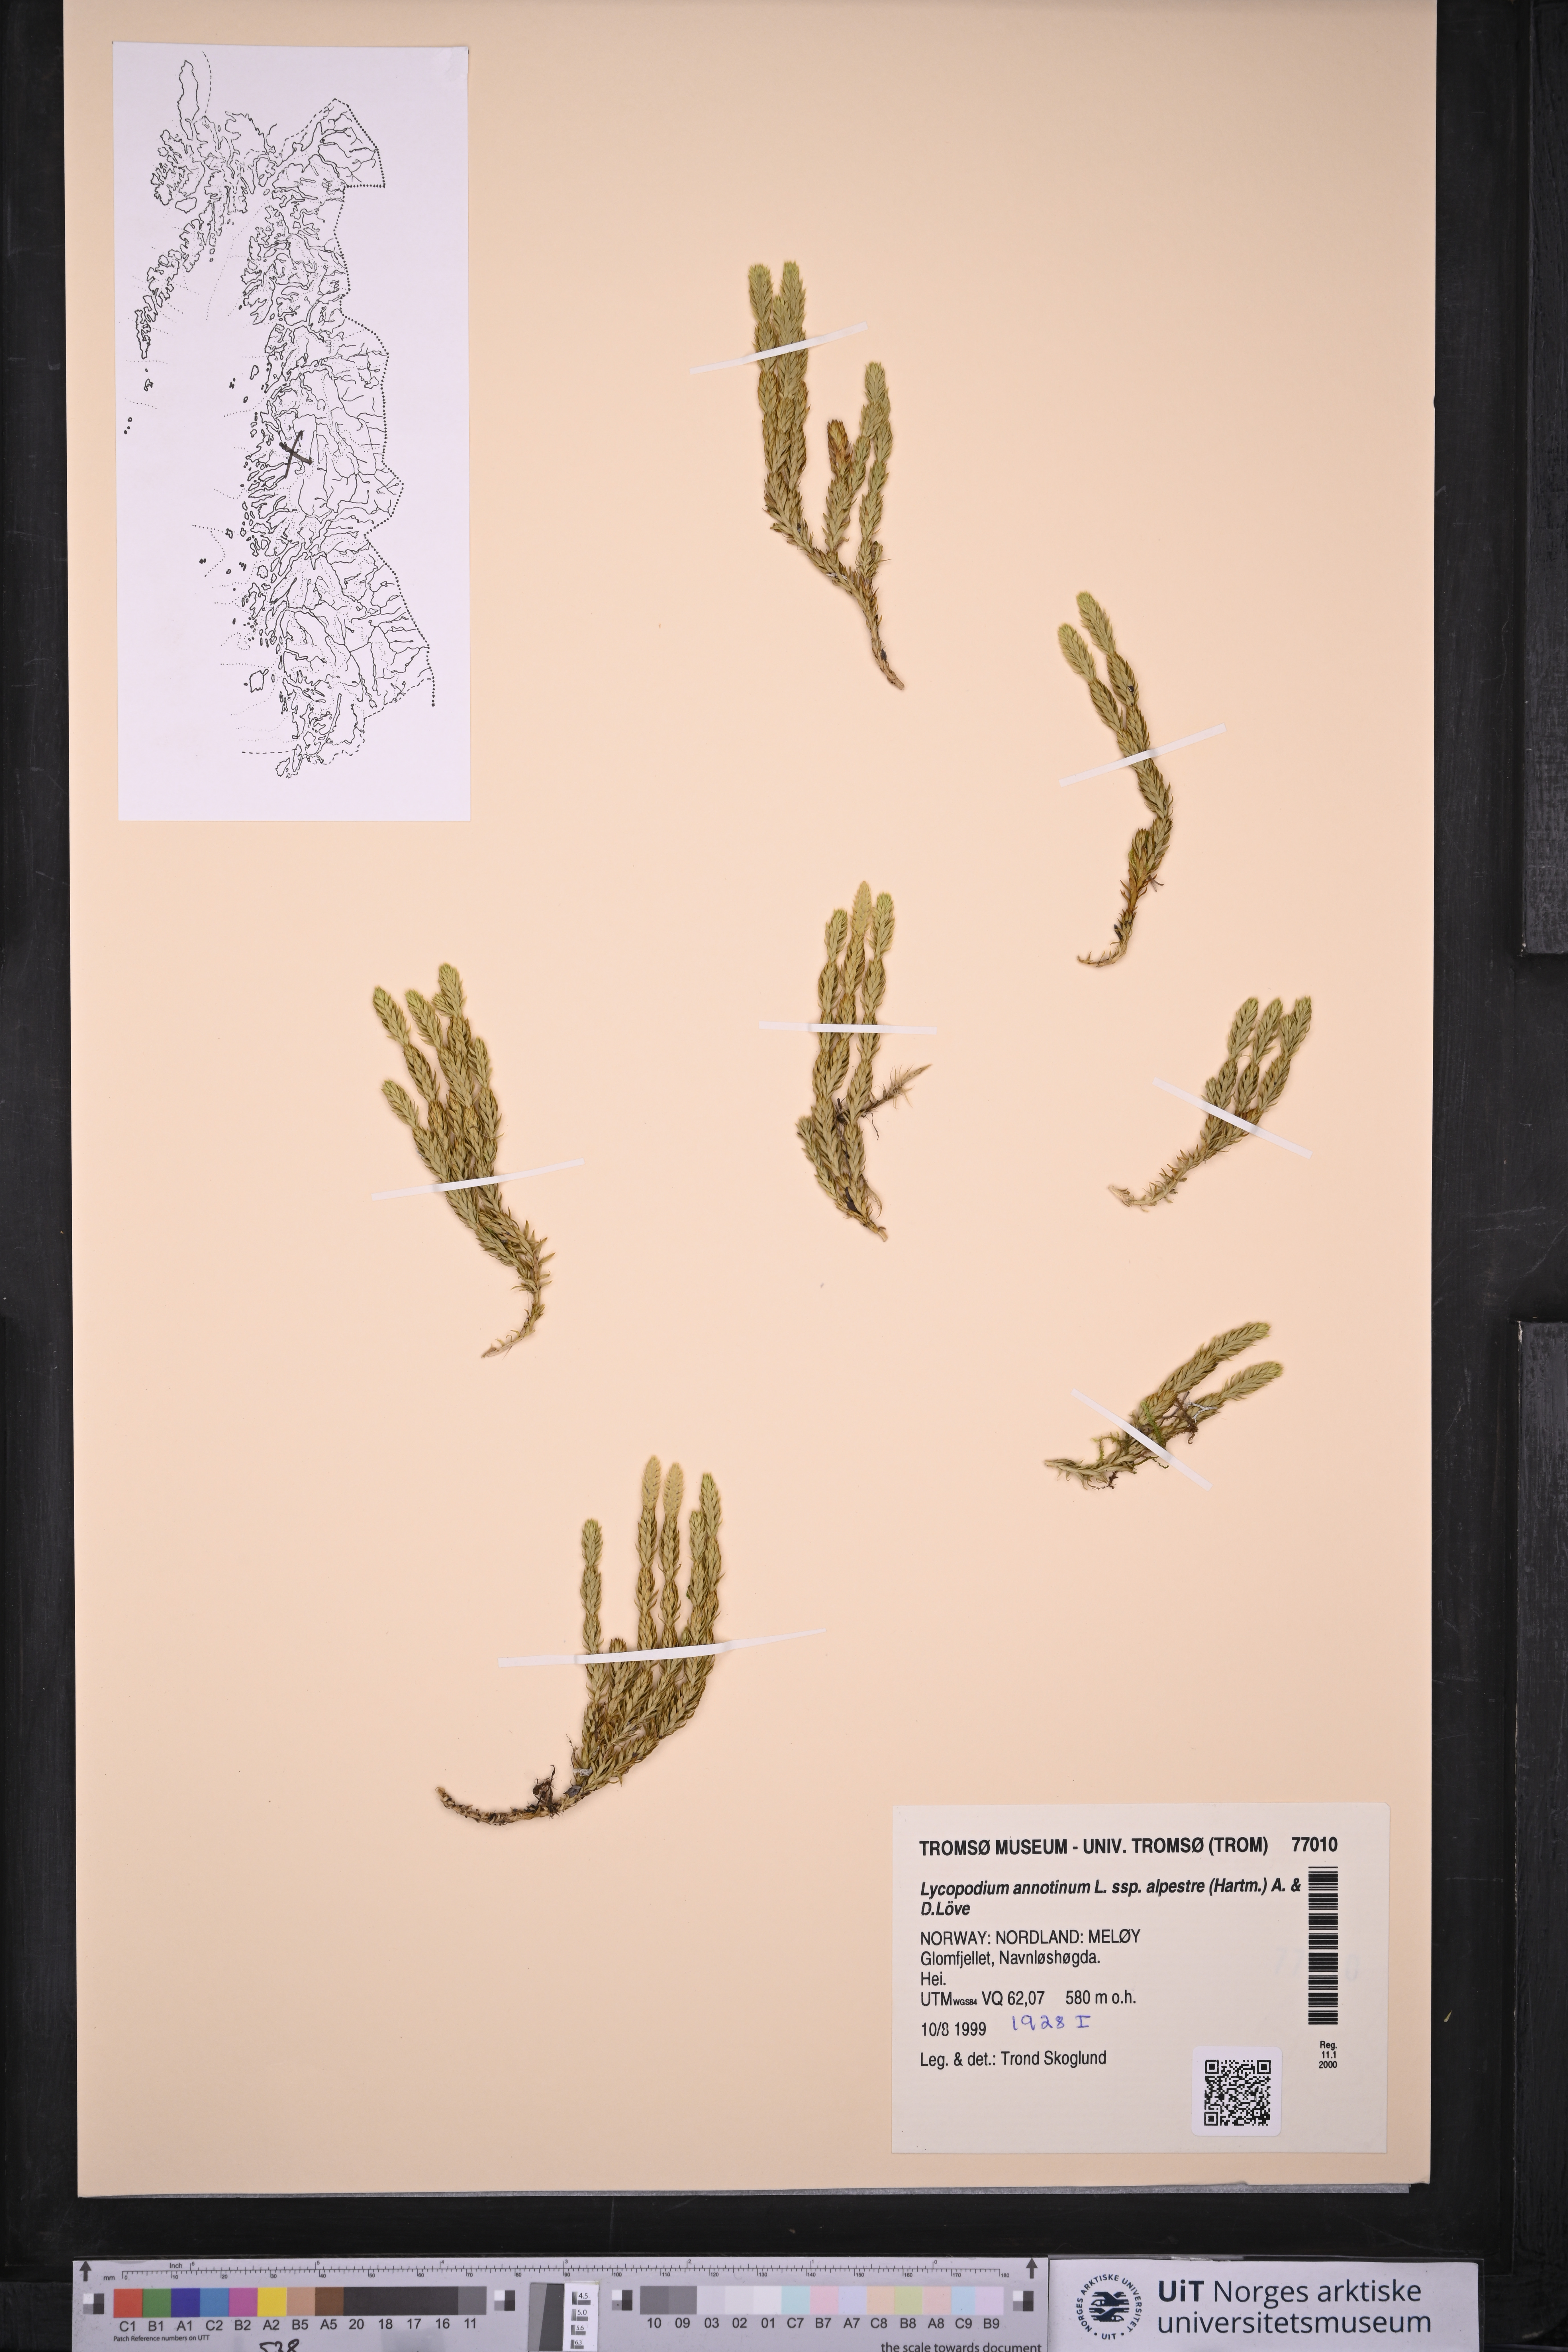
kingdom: Plantae
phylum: Tracheophyta
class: Lycopodiopsida
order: Lycopodiales
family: Lycopodiaceae
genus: Spinulum
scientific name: Spinulum annotinum
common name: Interrupted club-moss
